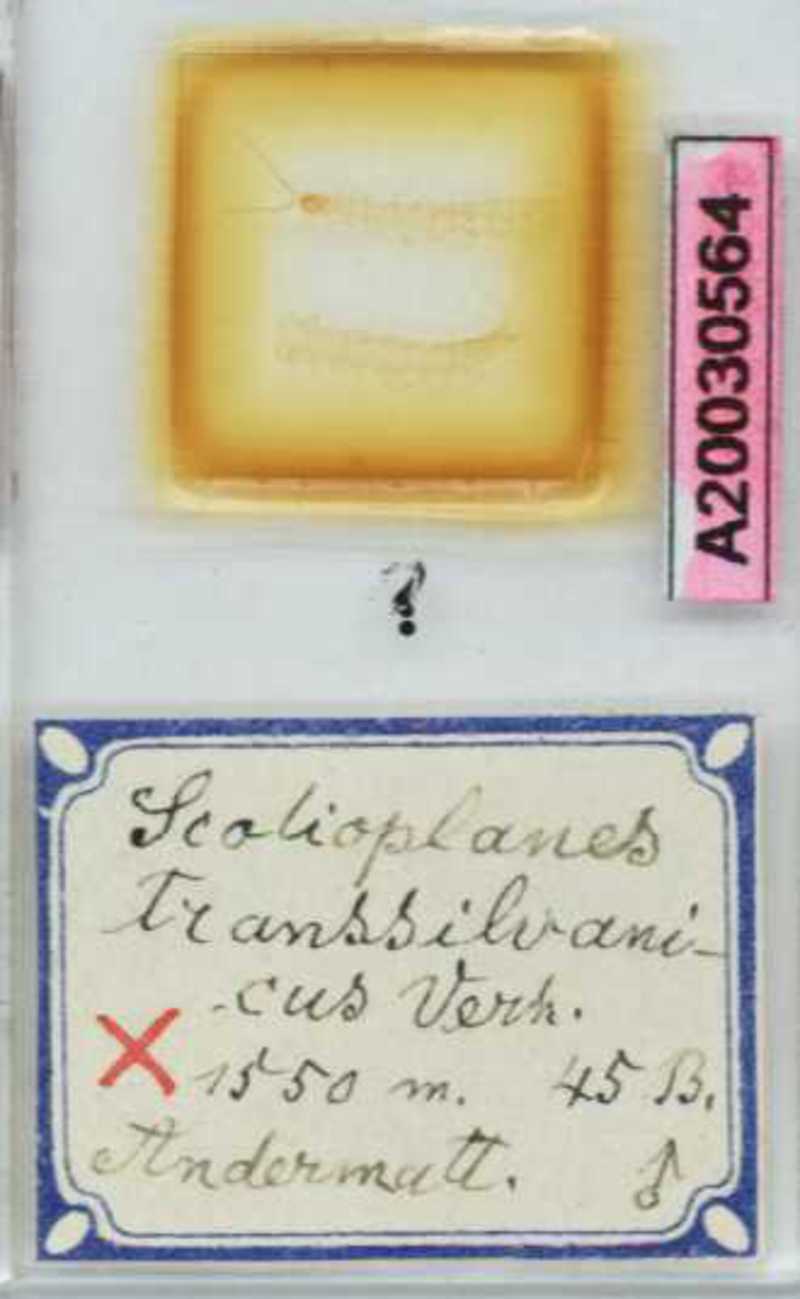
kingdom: Animalia
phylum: Arthropoda
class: Chilopoda
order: Geophilomorpha
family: Linotaeniidae
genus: Strigamia
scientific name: Strigamia transsilvanica
